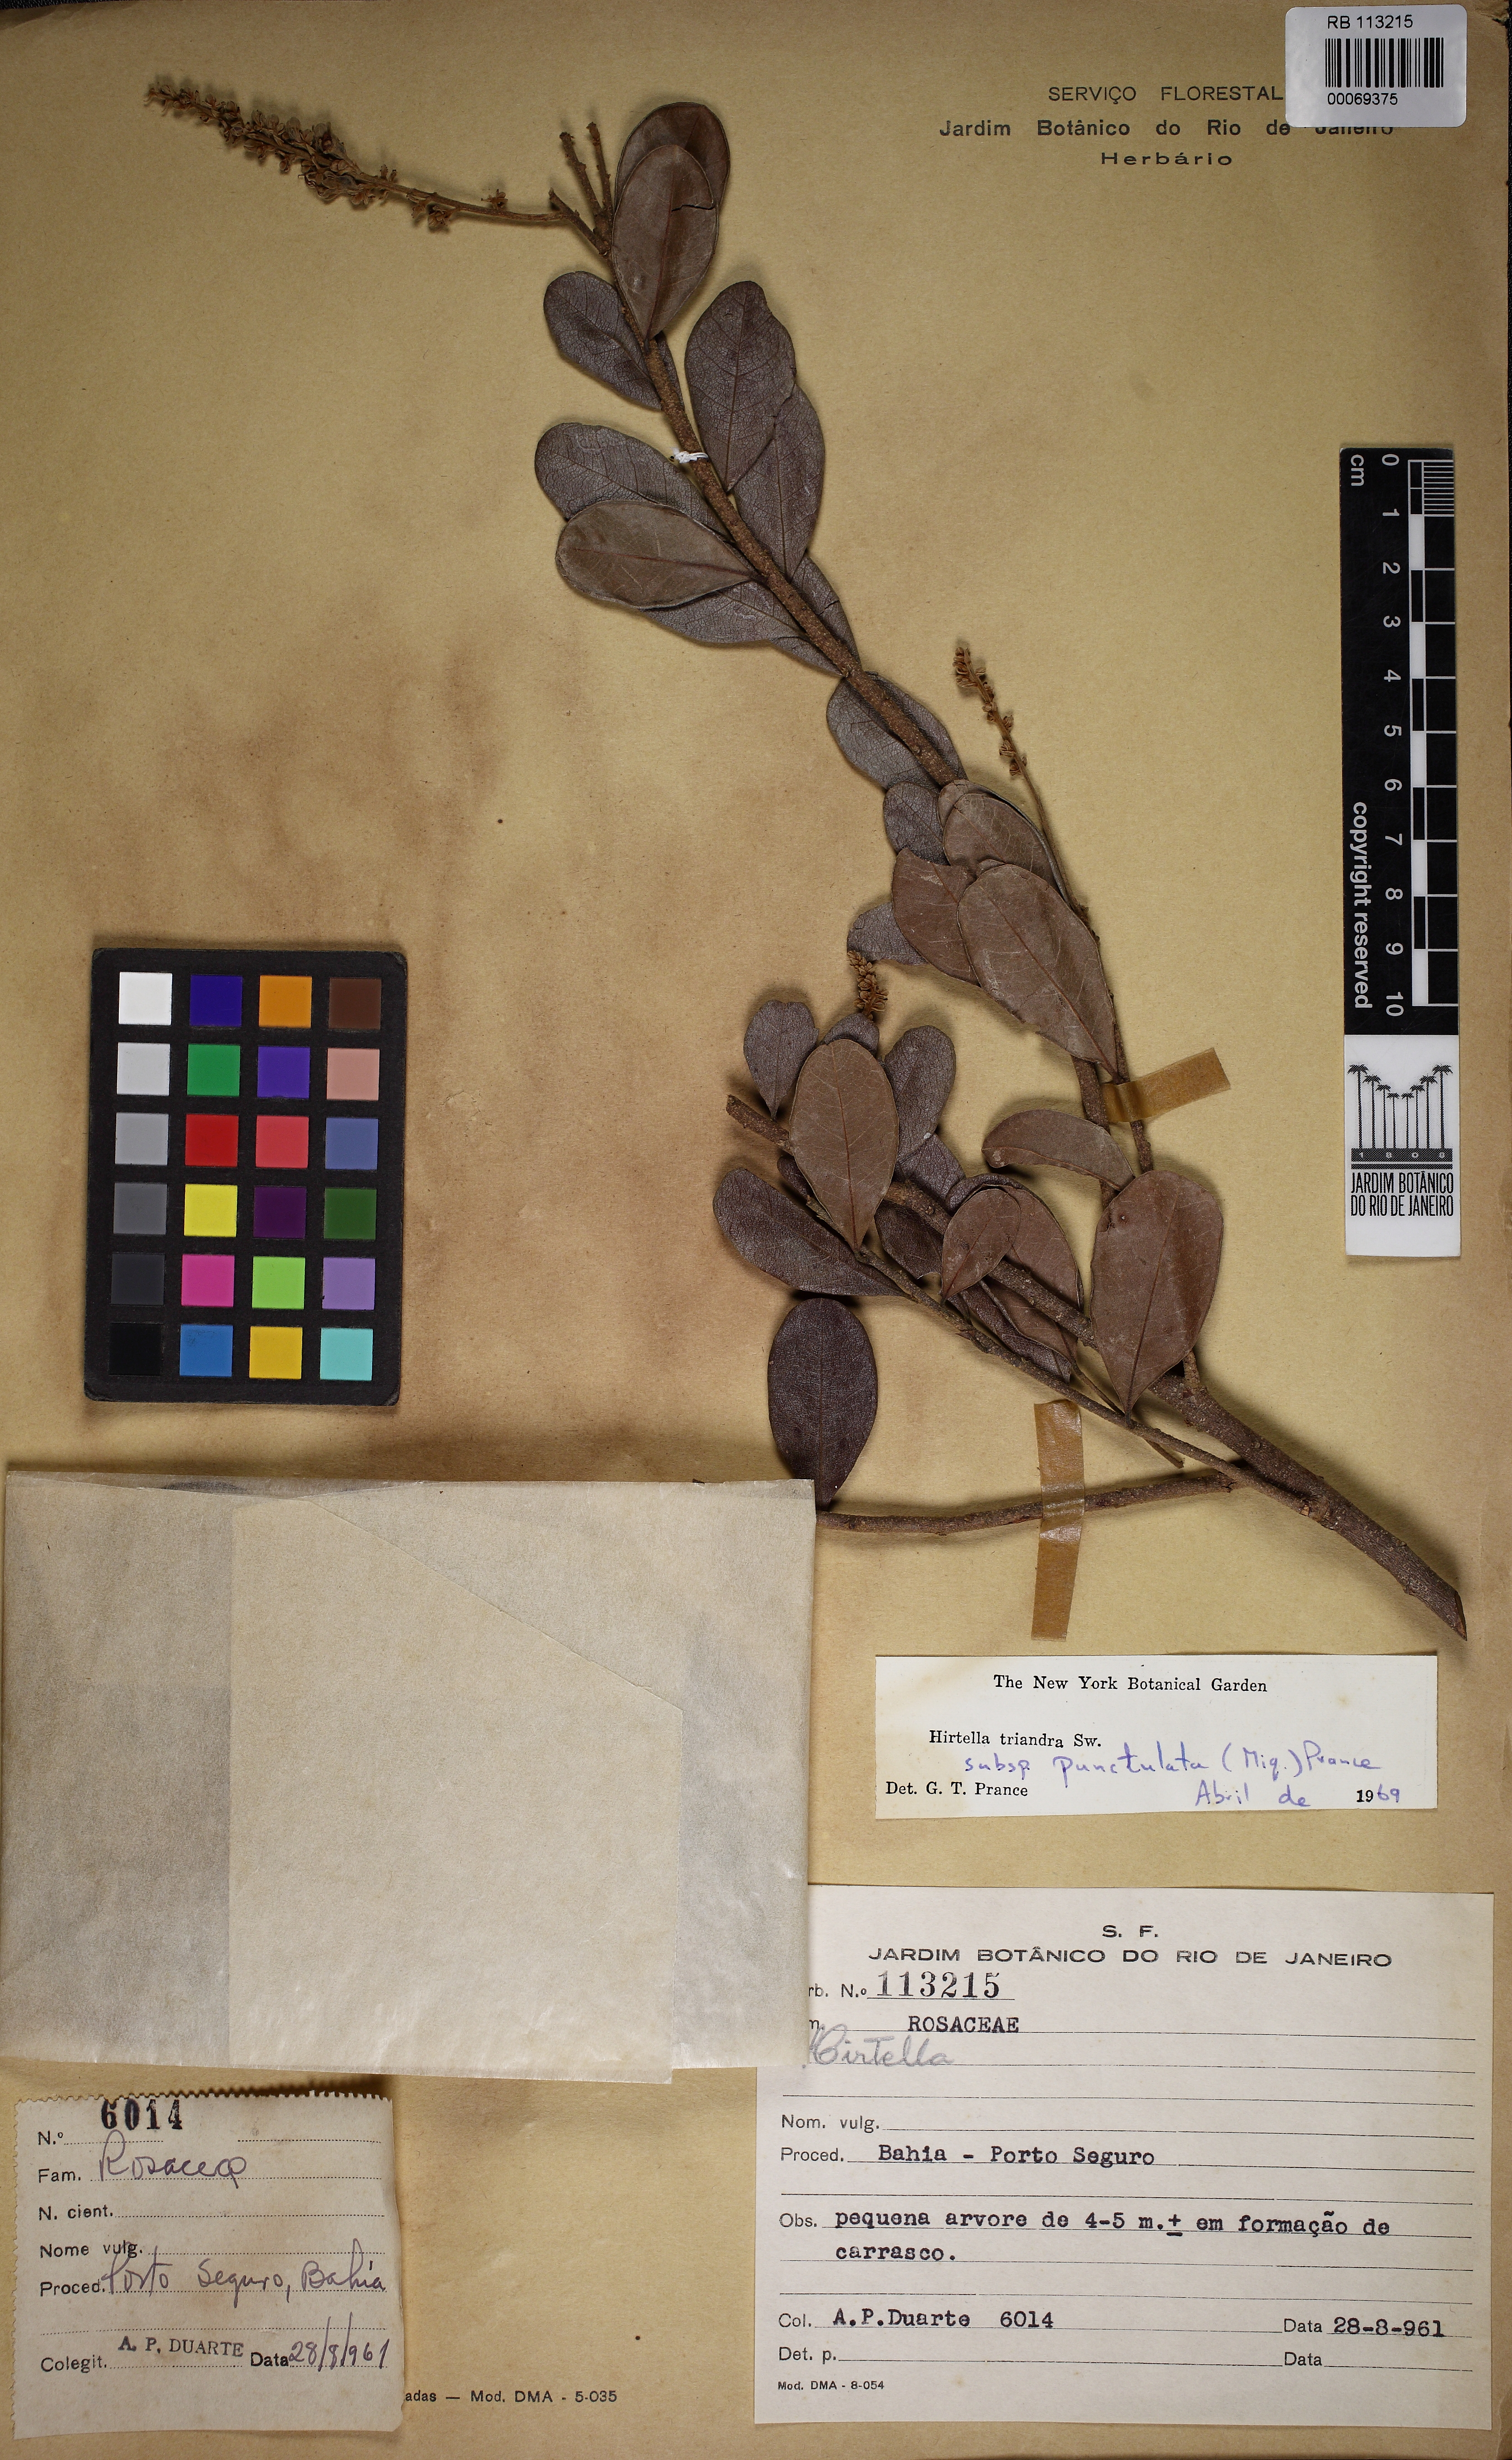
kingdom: Plantae
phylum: Tracheophyta
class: Magnoliopsida
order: Malpighiales
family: Chrysobalanaceae
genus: Hirtella
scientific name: Hirtella bahiensis
